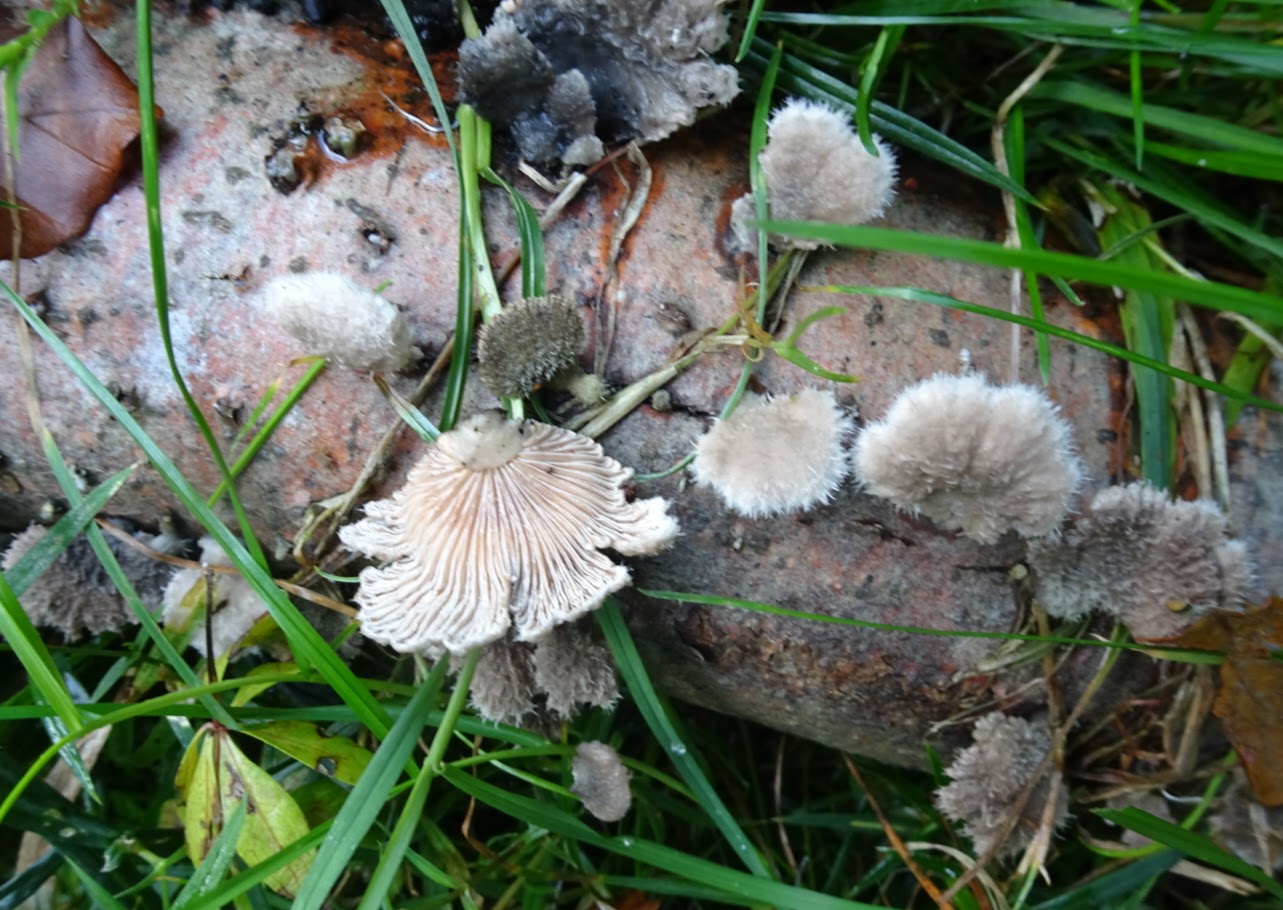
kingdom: Fungi
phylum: Basidiomycota
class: Agaricomycetes
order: Agaricales
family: Schizophyllaceae
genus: Schizophyllum
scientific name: Schizophyllum commune
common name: kløvblad
